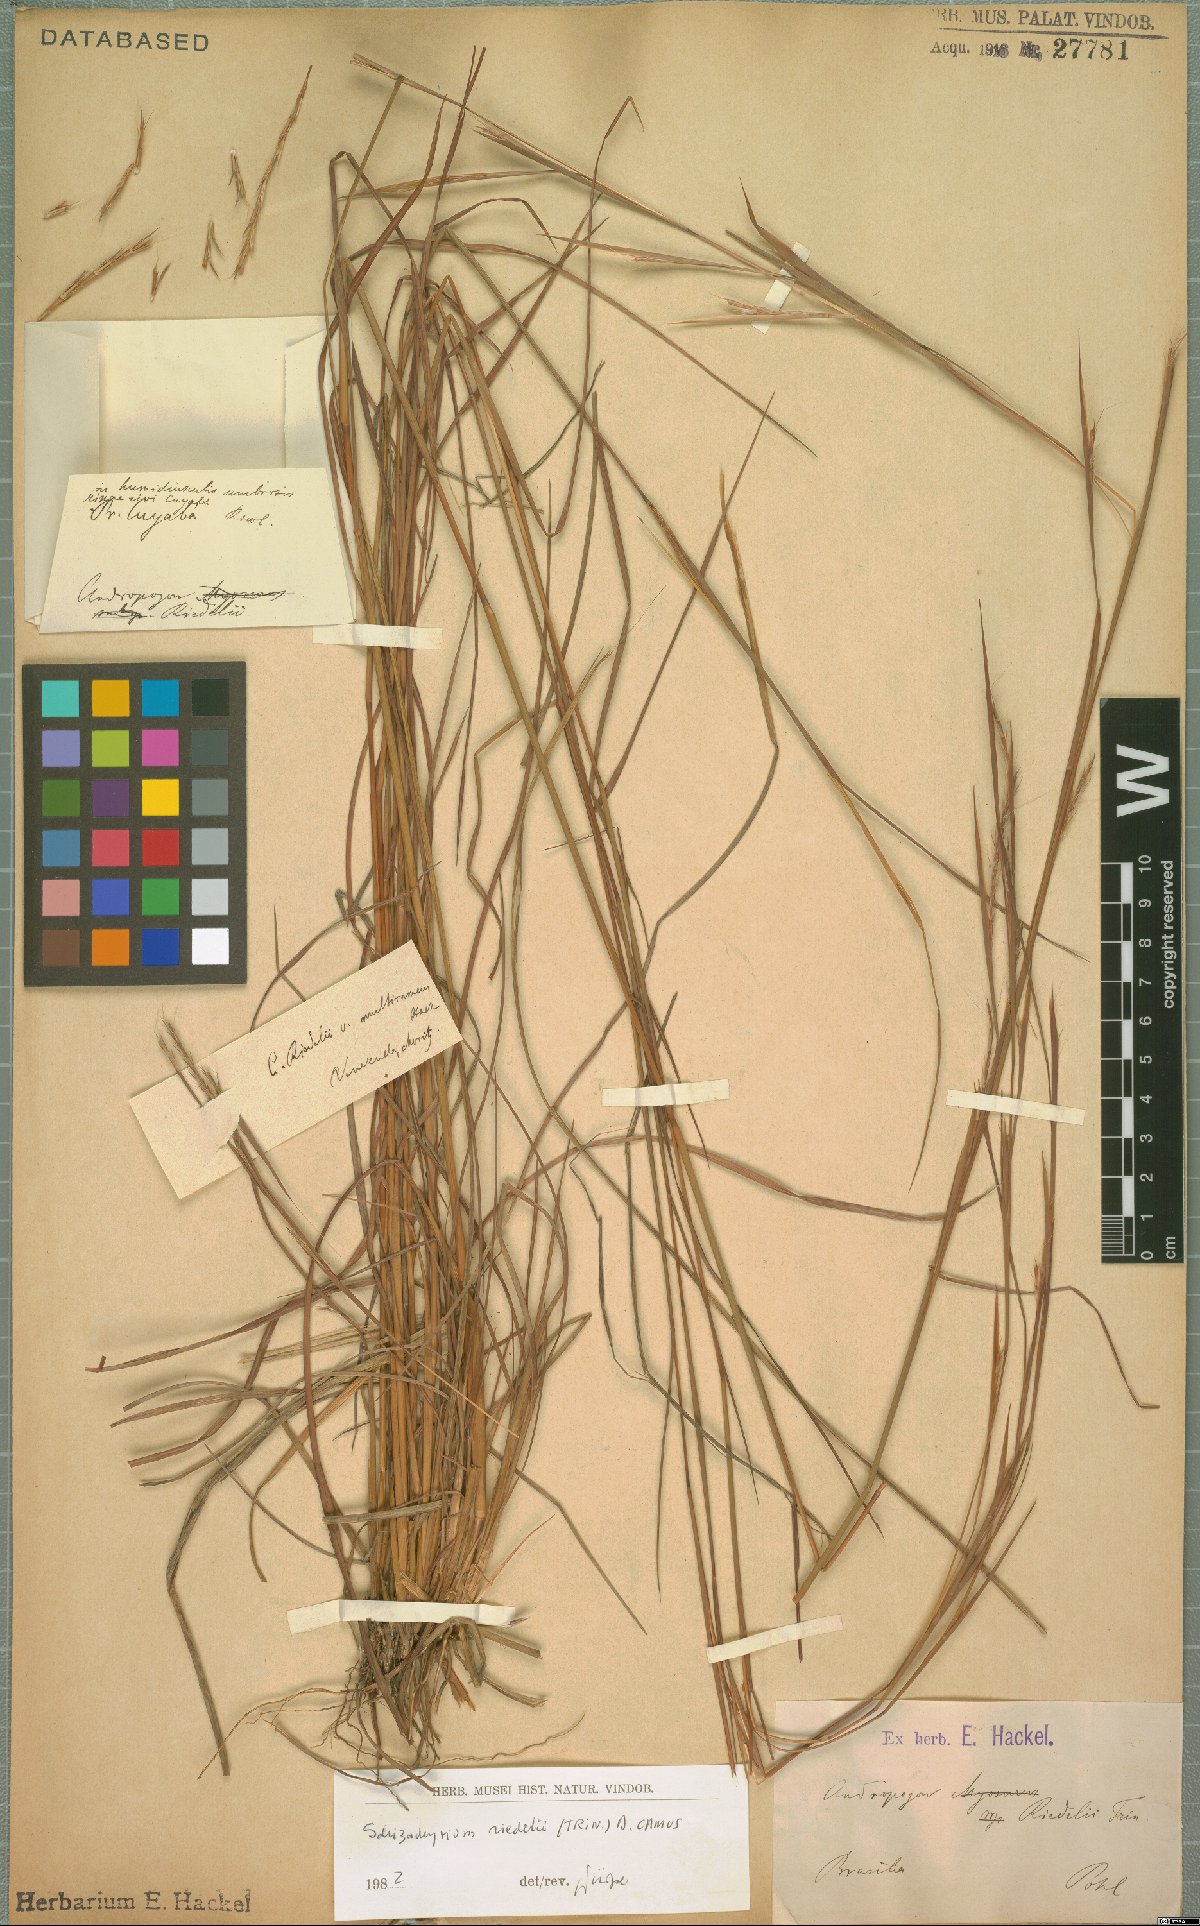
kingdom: Plantae
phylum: Tracheophyta
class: Liliopsida
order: Poales
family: Poaceae
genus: Schizachyrium
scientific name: Schizachyrium sanguineum
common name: Crimson bluestem
